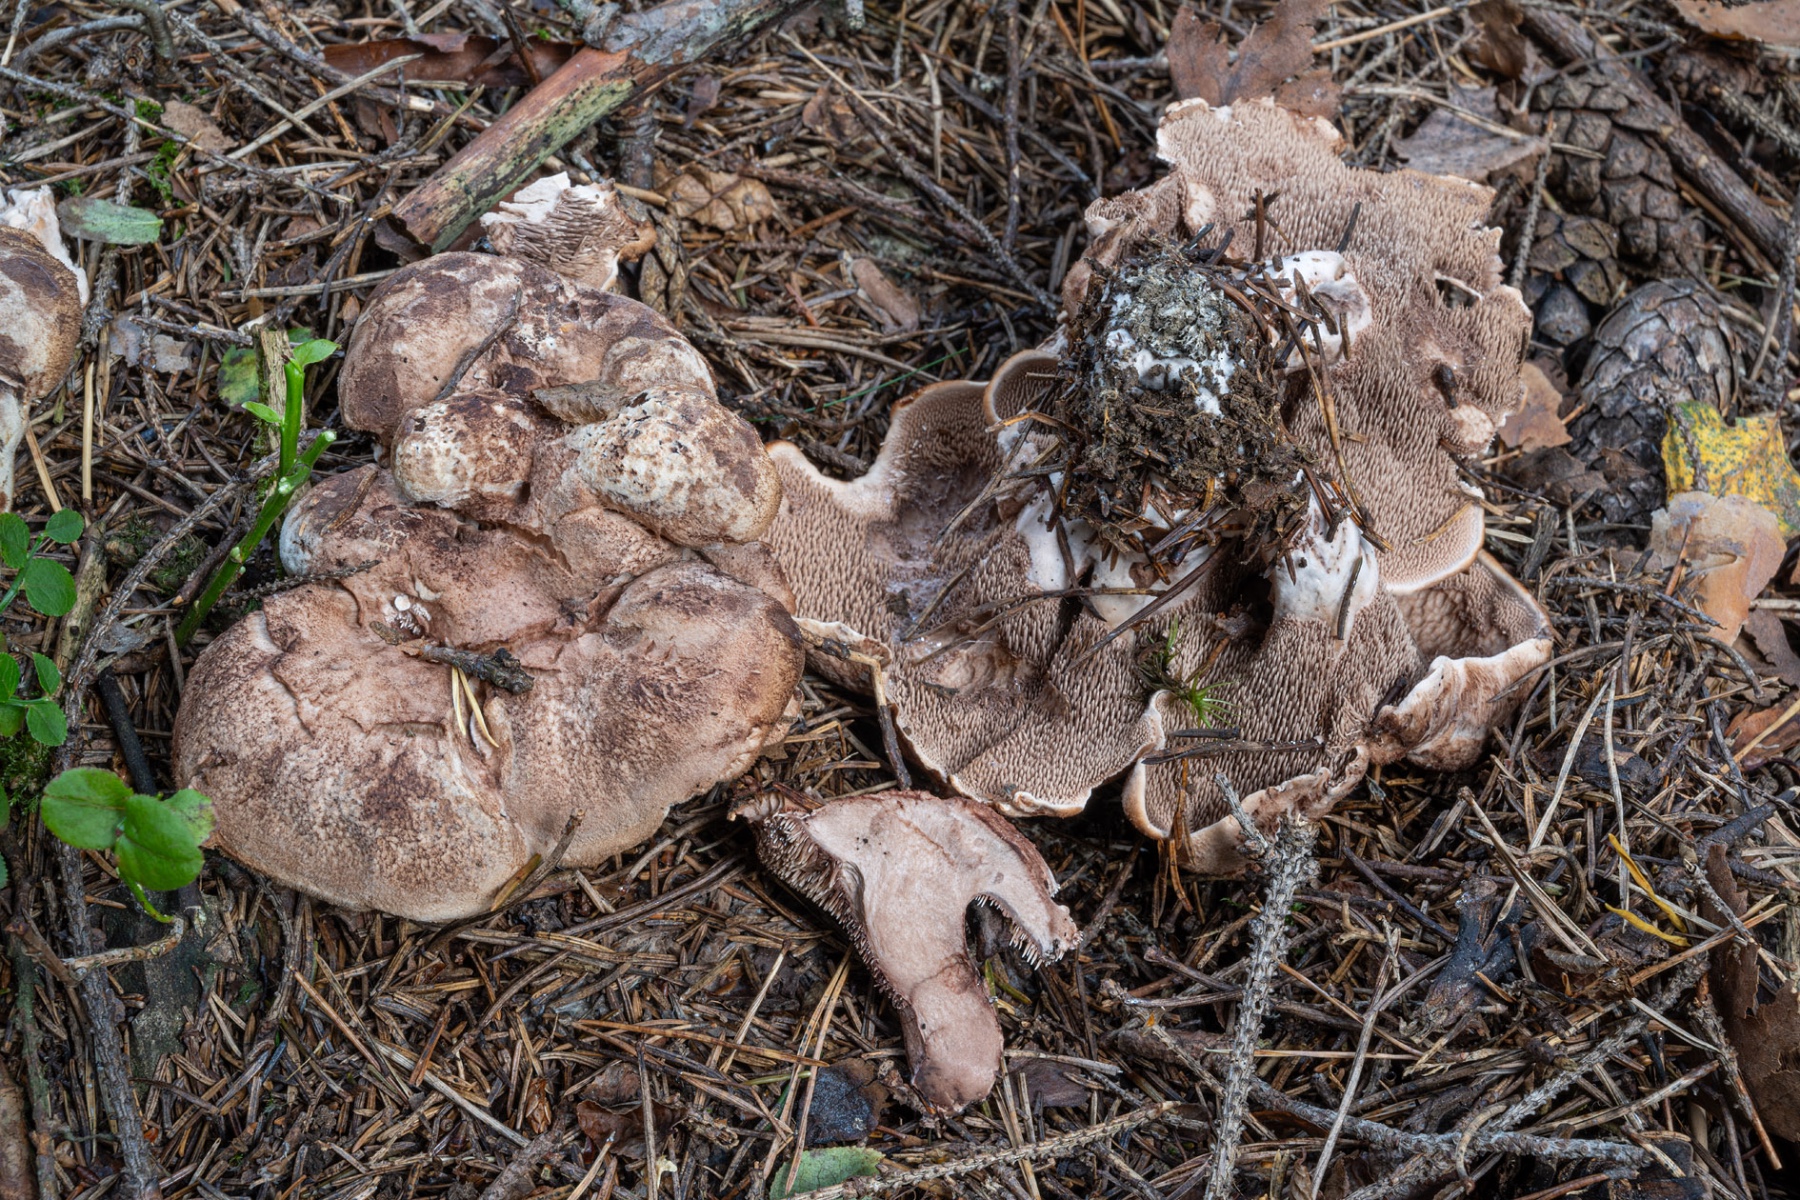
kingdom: Fungi
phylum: Basidiomycota
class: Agaricomycetes
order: Thelephorales
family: Bankeraceae
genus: Hydnellum
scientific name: Hydnellum versipelle
